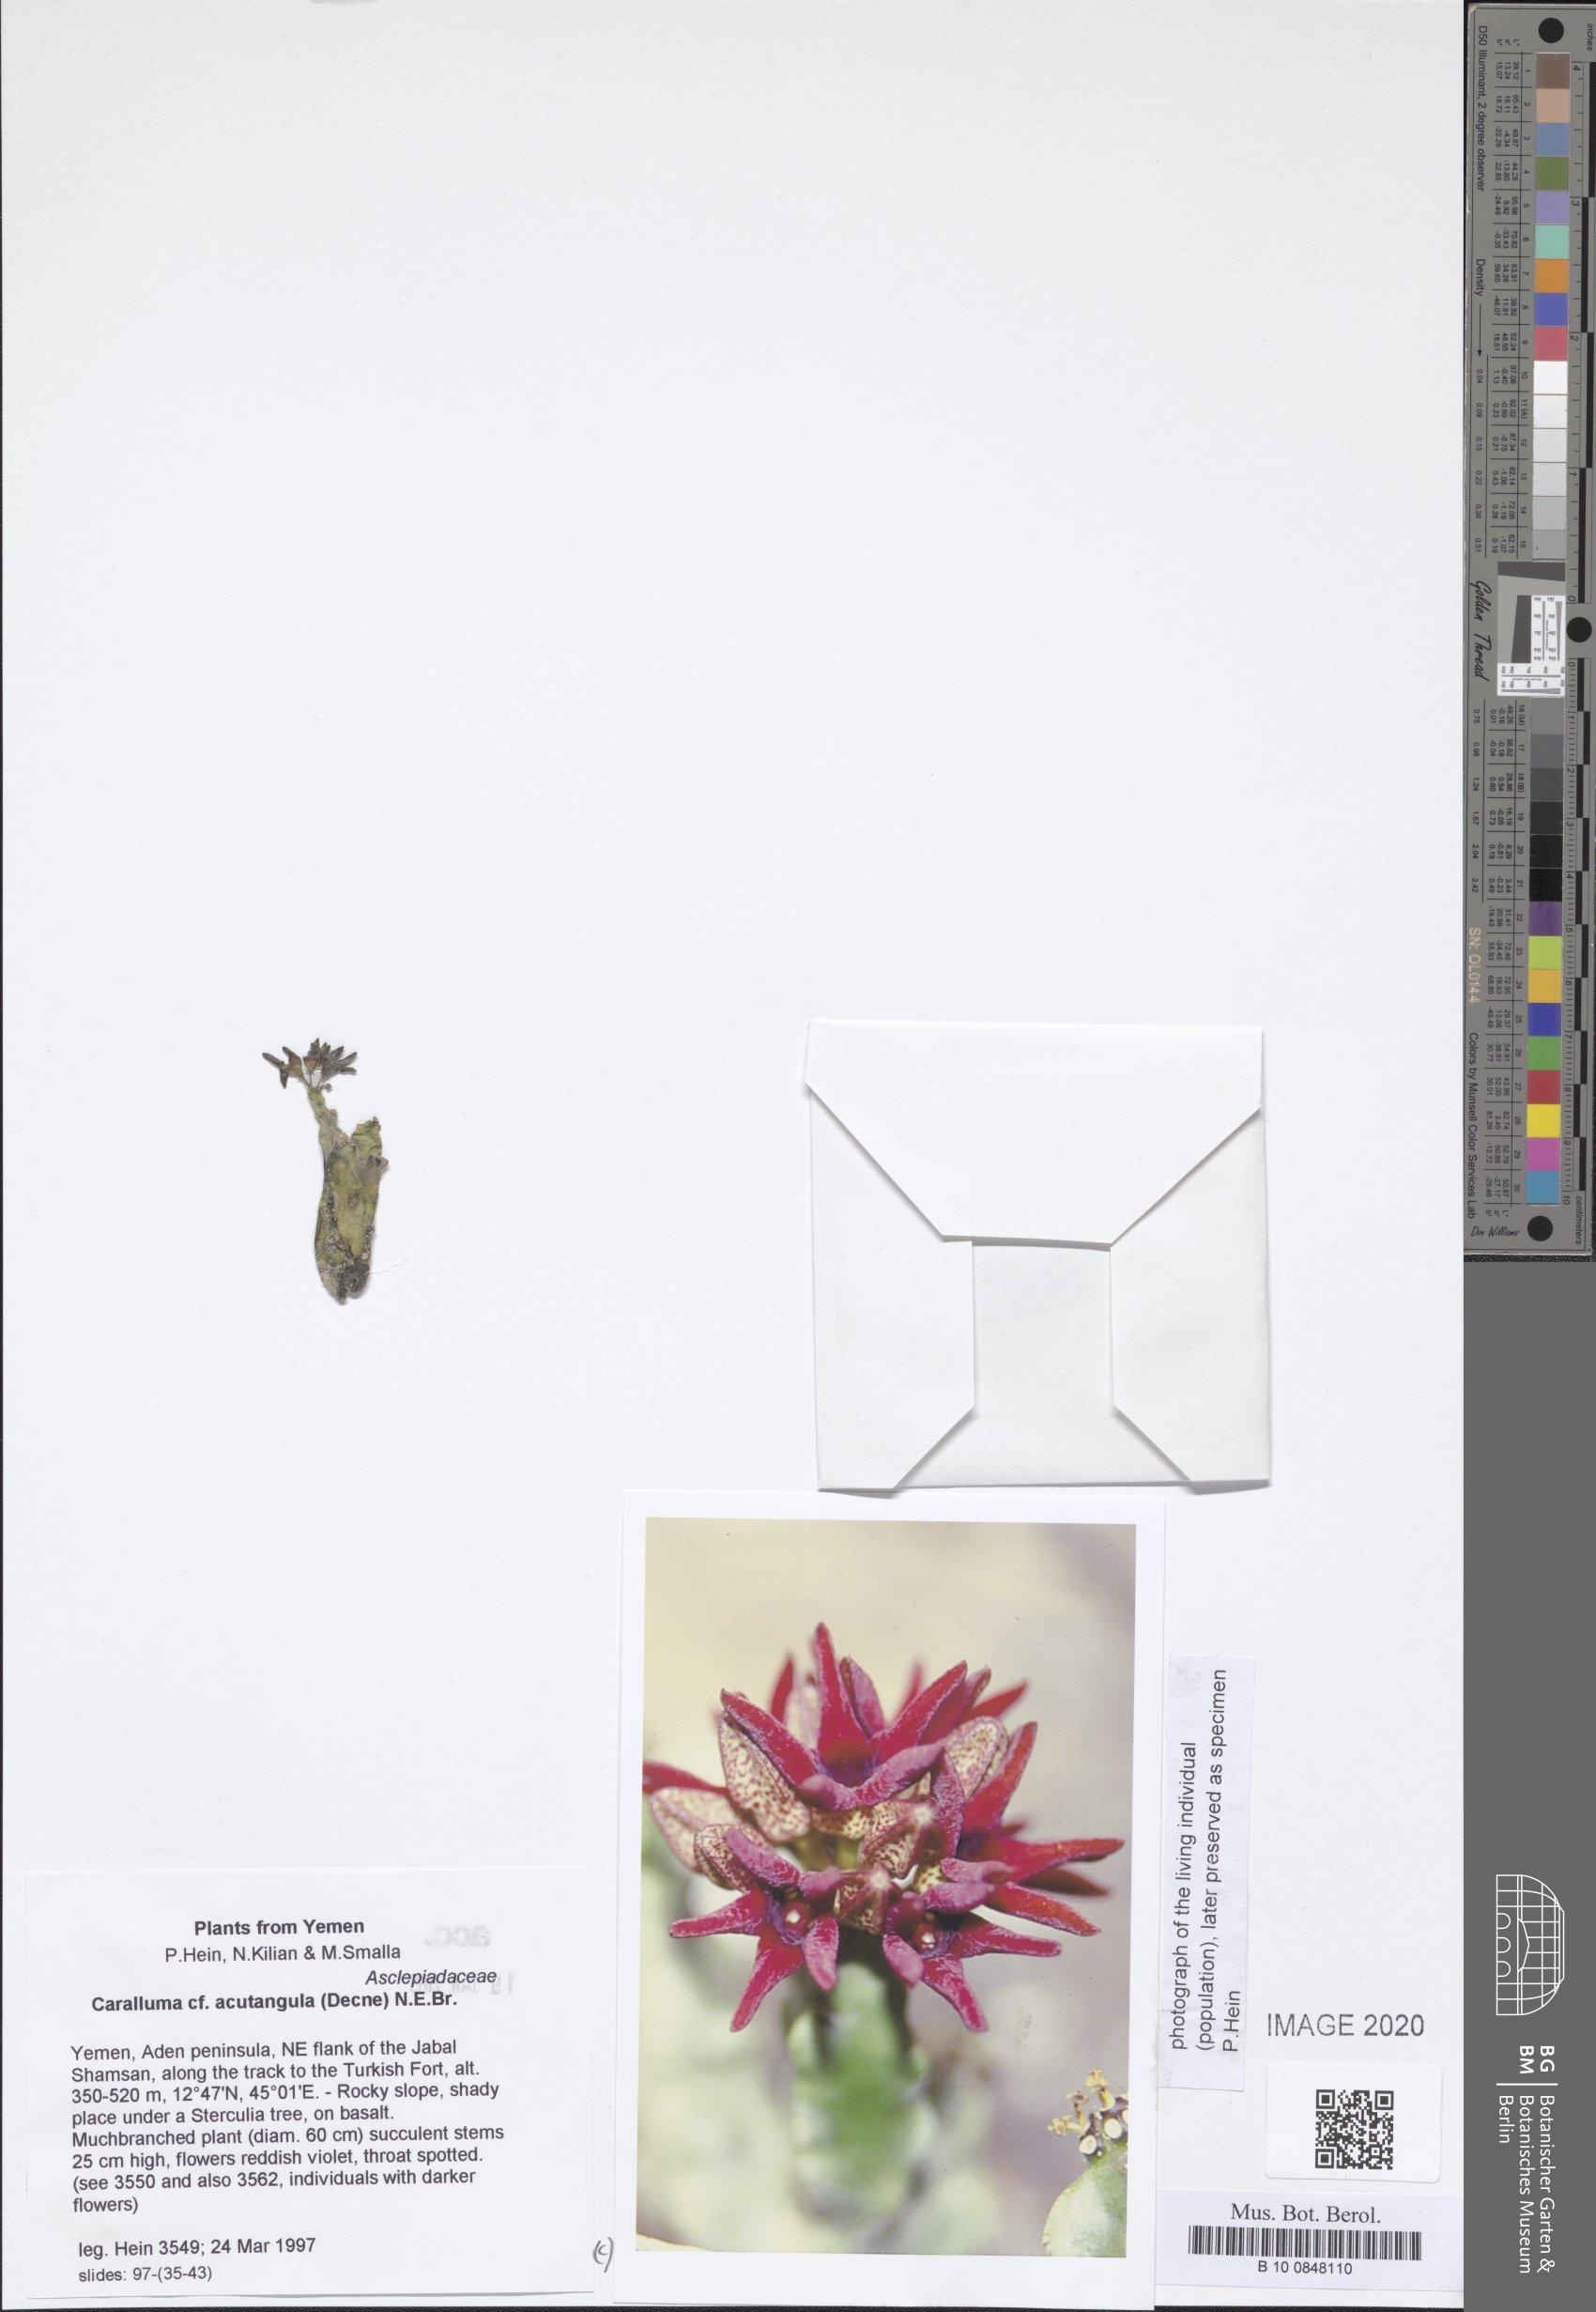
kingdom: Plantae
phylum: Tracheophyta
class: Magnoliopsida
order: Gentianales
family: Apocynaceae
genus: Ceropegia
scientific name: Ceropegia adenensis
